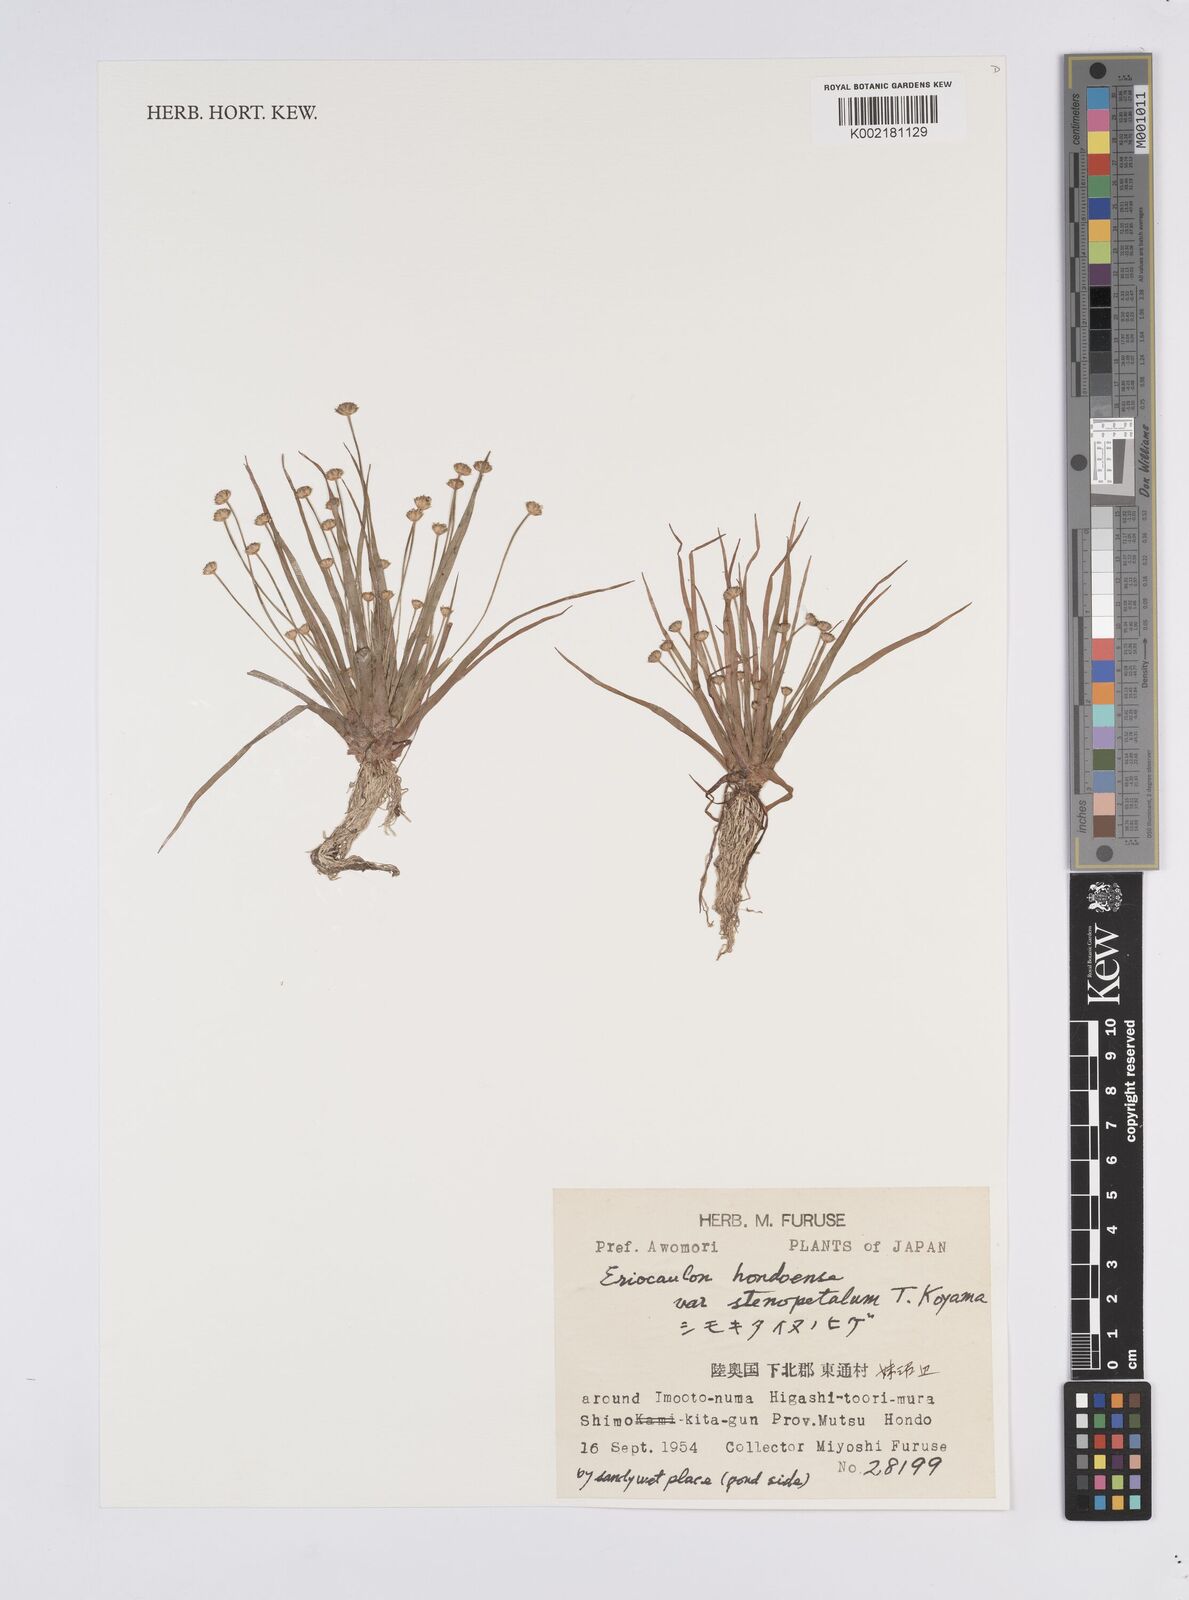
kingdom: Plantae
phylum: Tracheophyta
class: Liliopsida
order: Poales
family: Eriocaulaceae
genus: Eriocaulon
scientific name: Eriocaulon taquetii
